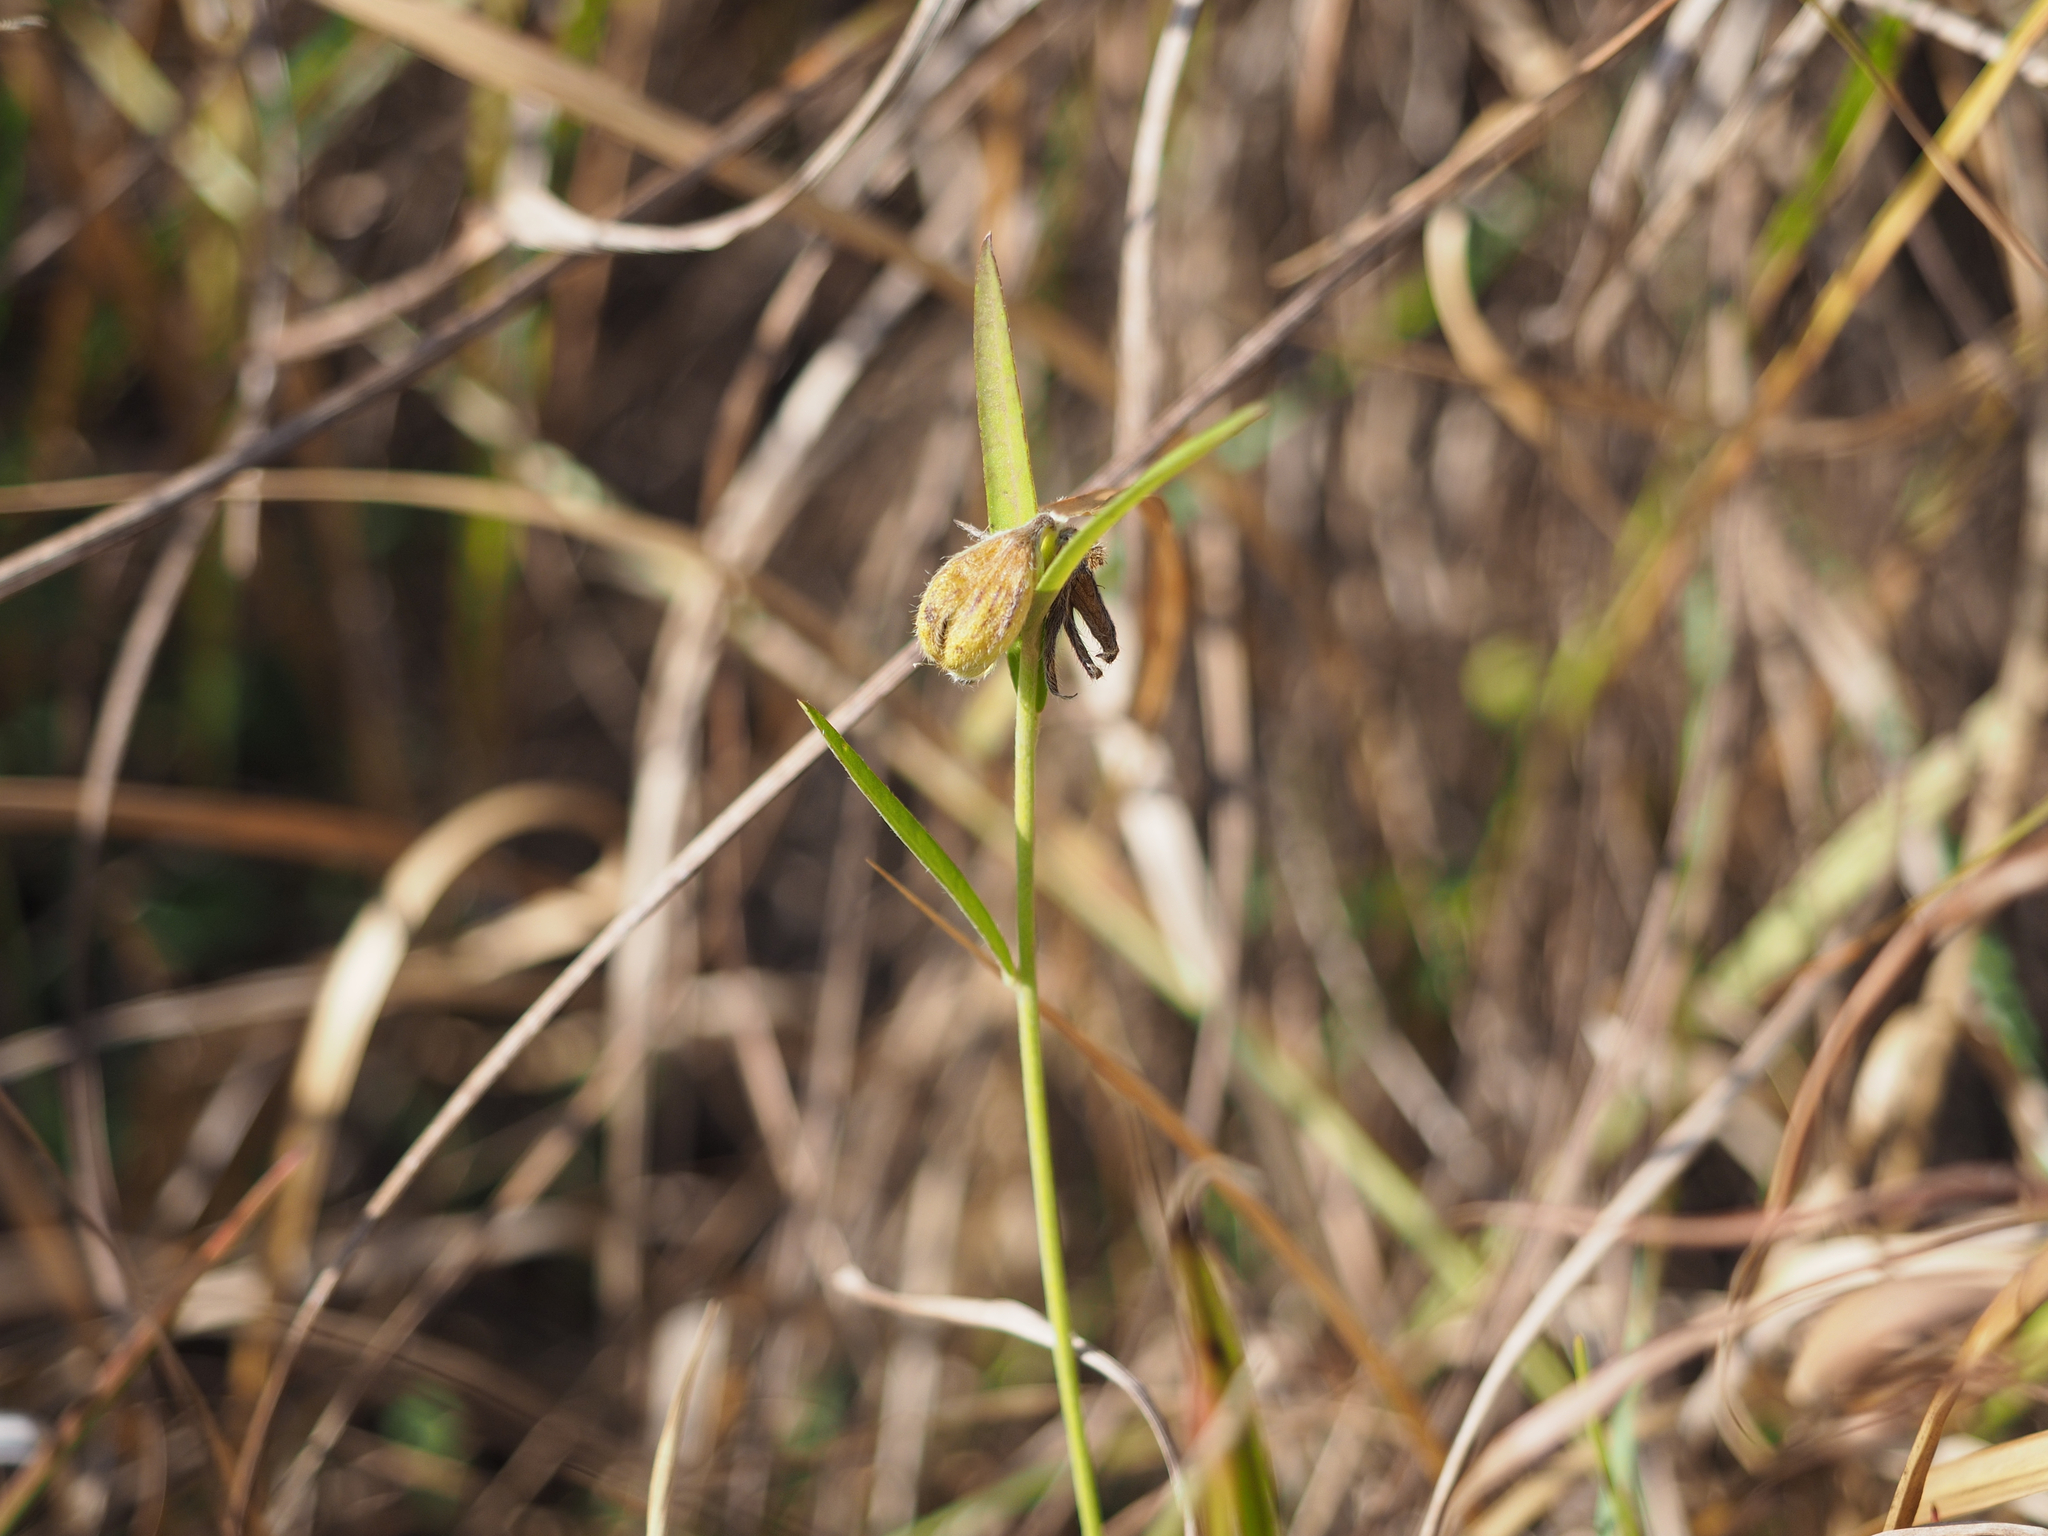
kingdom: Plantae
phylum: Tracheophyta
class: Magnoliopsida
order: Fabales
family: Fabaceae
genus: Crotalaria
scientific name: Crotalaria sessiliflora
